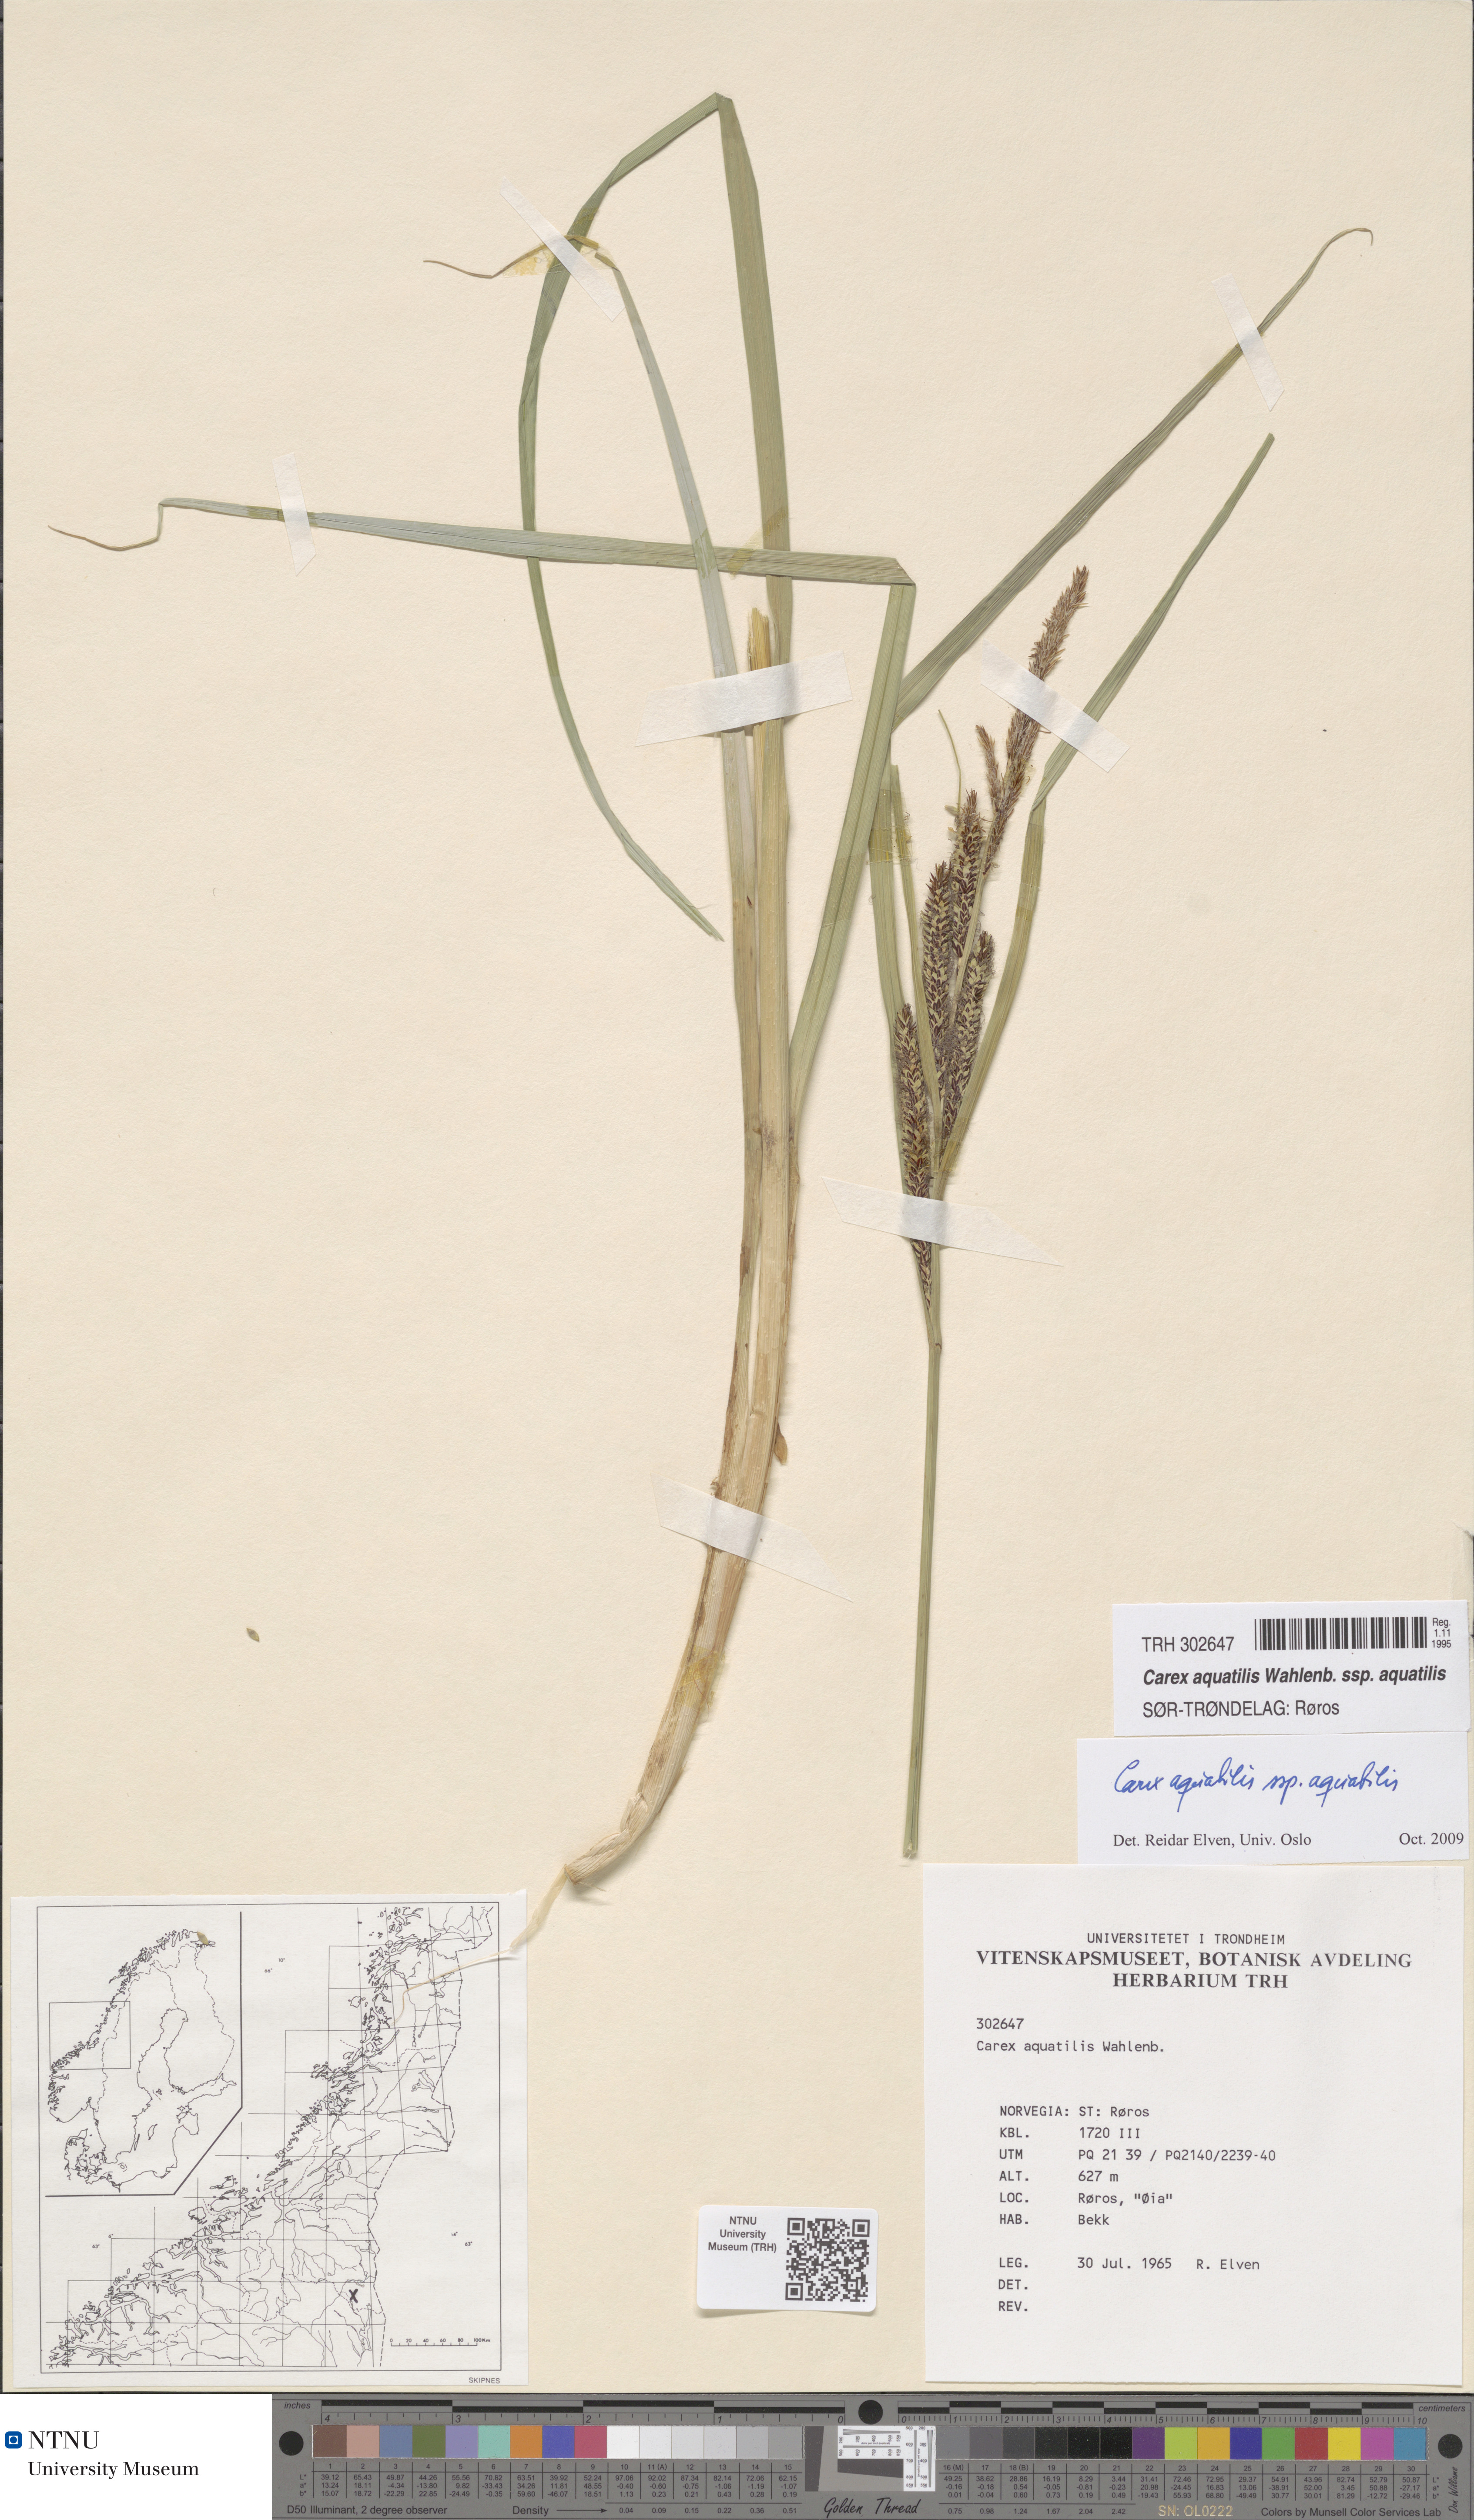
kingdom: Plantae
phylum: Tracheophyta
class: Liliopsida
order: Poales
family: Cyperaceae
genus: Carex
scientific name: Carex aquatilis
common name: Water sedge
